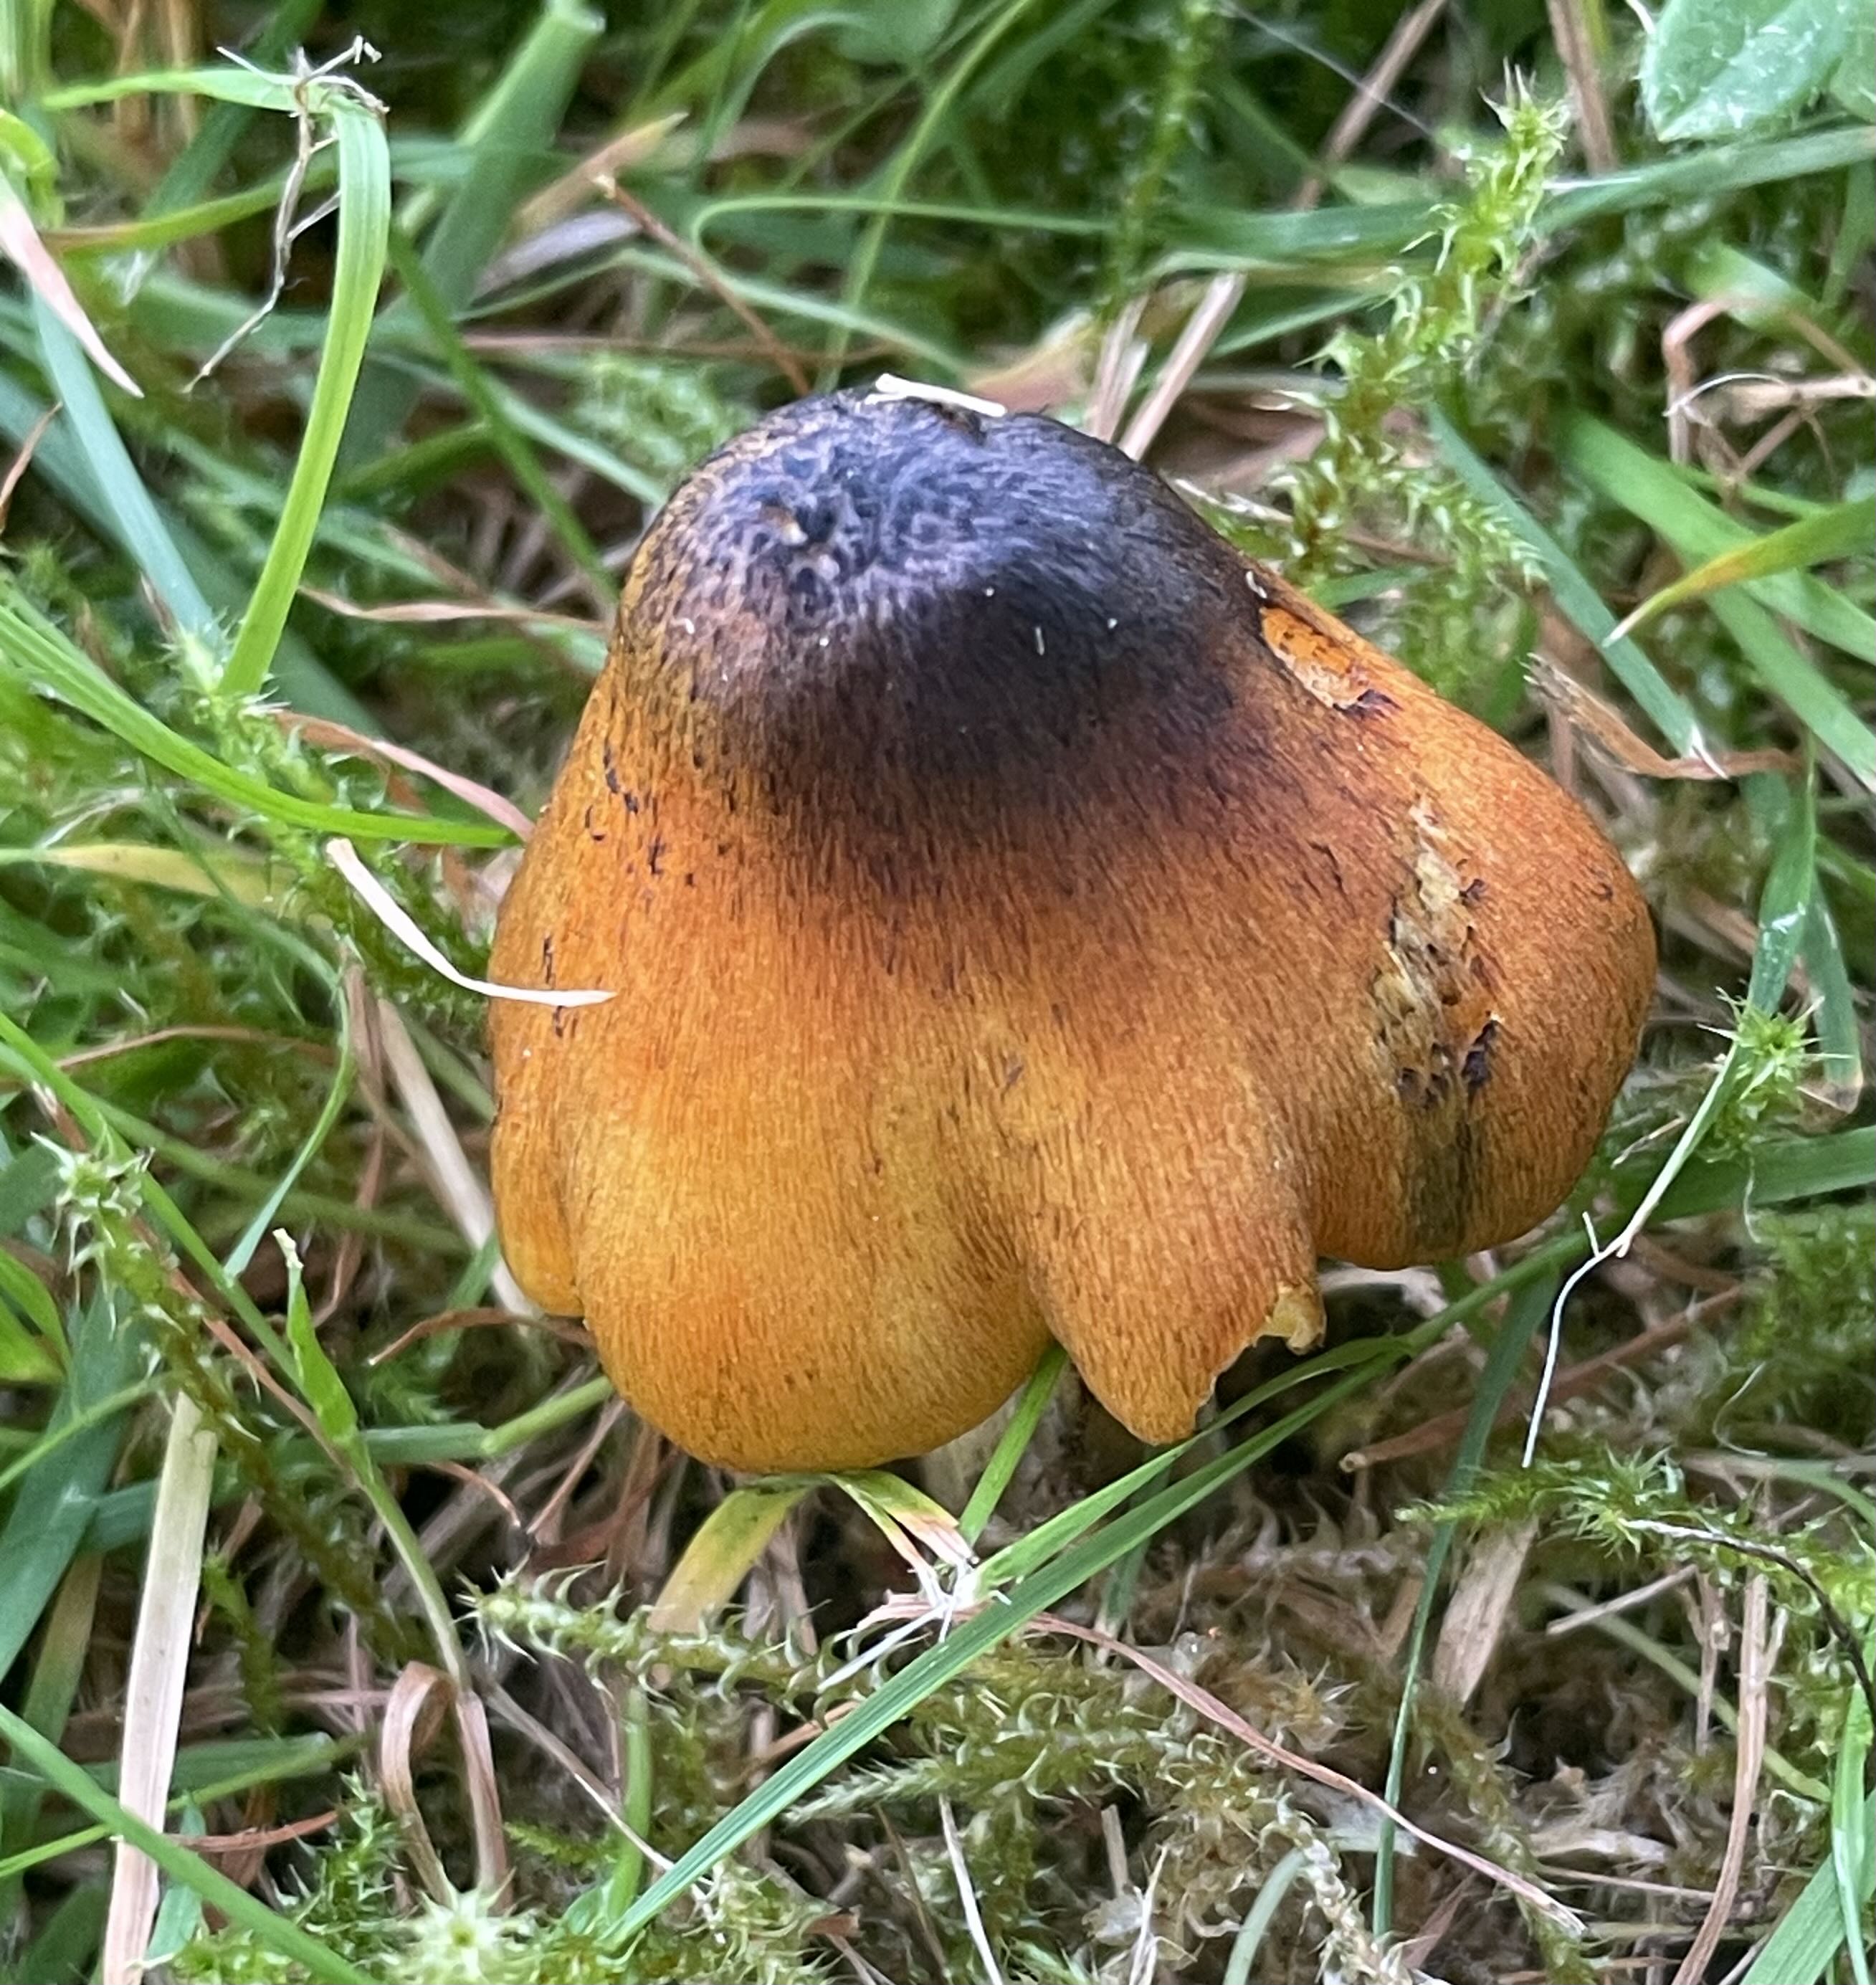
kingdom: Fungi
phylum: Basidiomycota
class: Agaricomycetes
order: Agaricales
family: Hygrophoraceae
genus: Hygrocybe
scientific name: Hygrocybe conica
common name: kegle-vokshat
